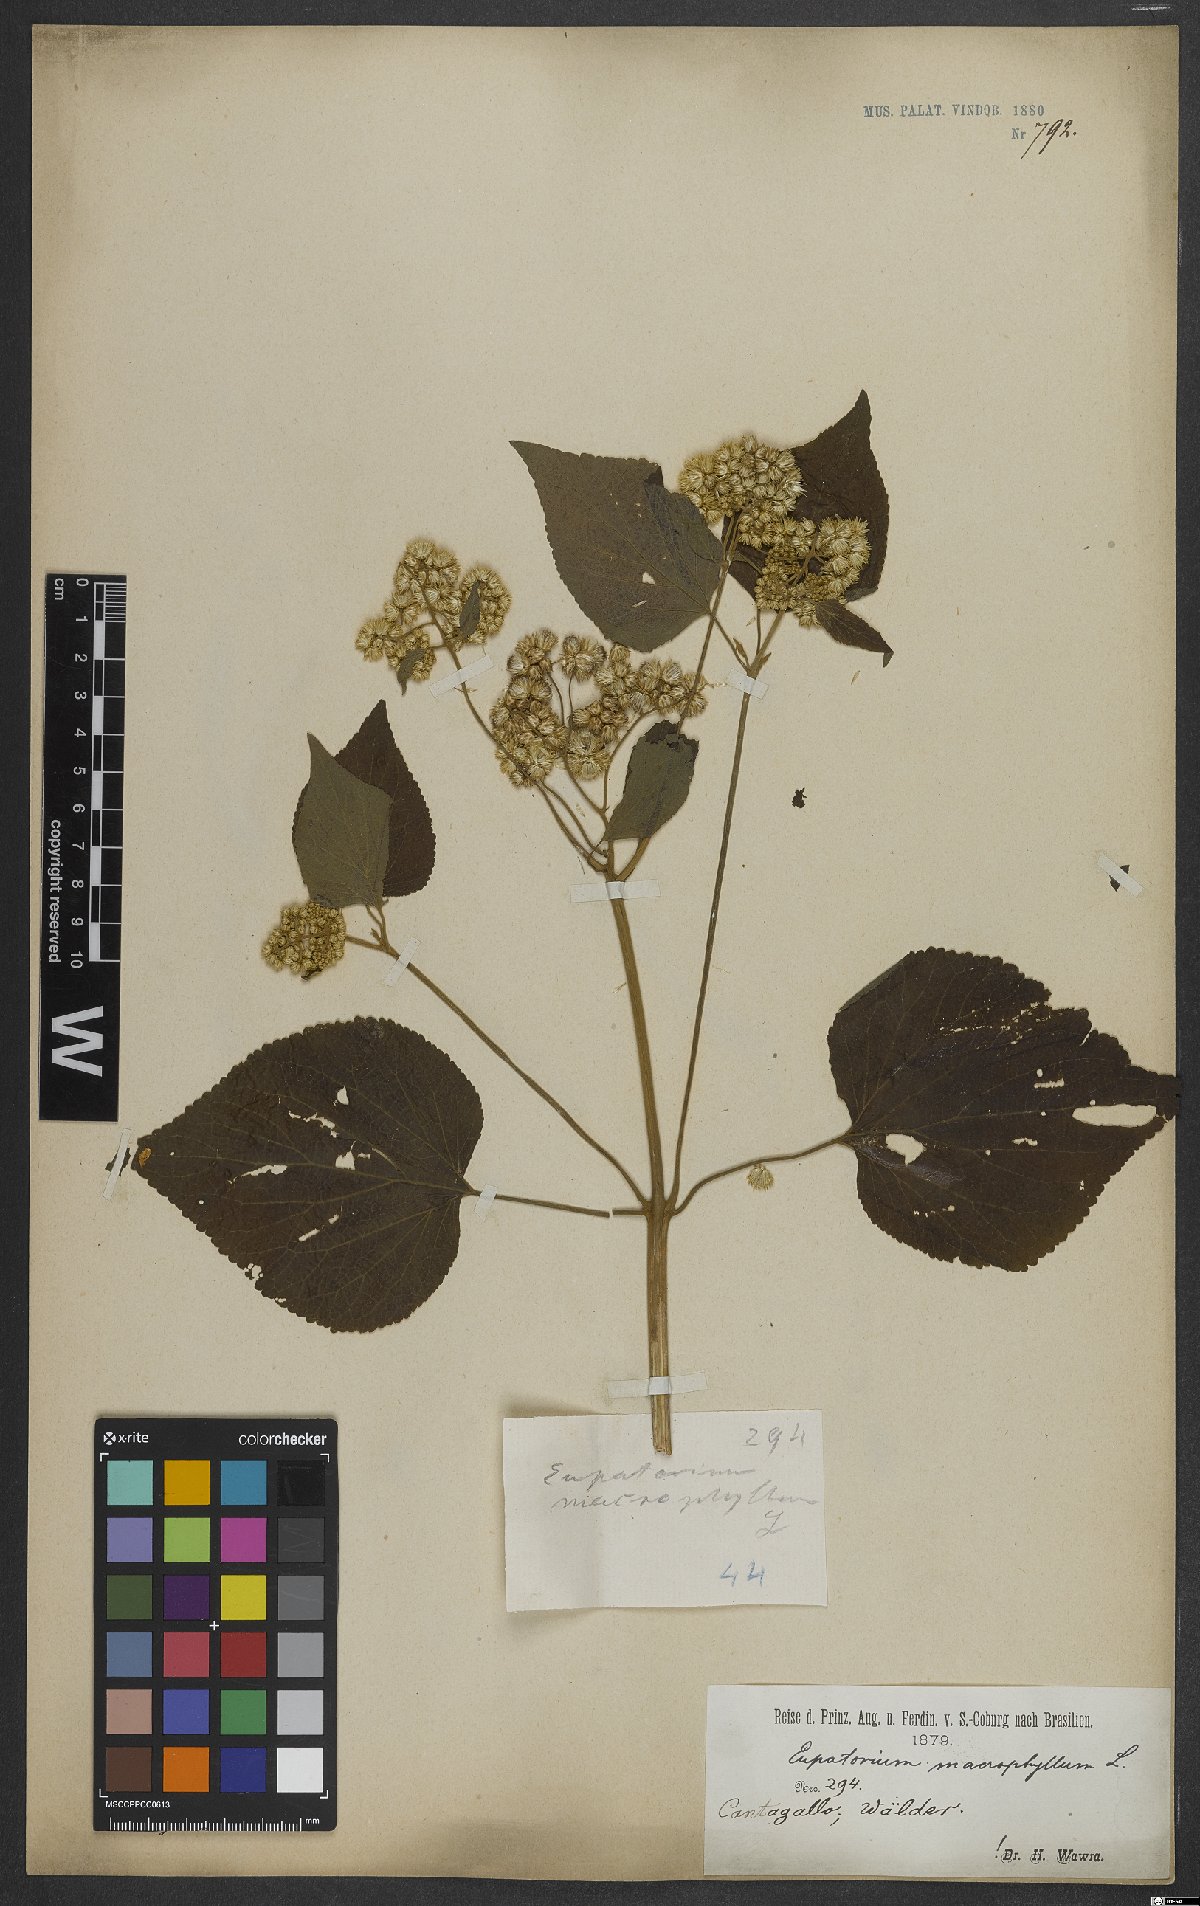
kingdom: Plantae
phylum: Tracheophyta
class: Magnoliopsida
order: Asterales
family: Asteraceae
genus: Hebeclinium
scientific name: Hebeclinium macrophyllum
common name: Largeleaf thoroughwort
